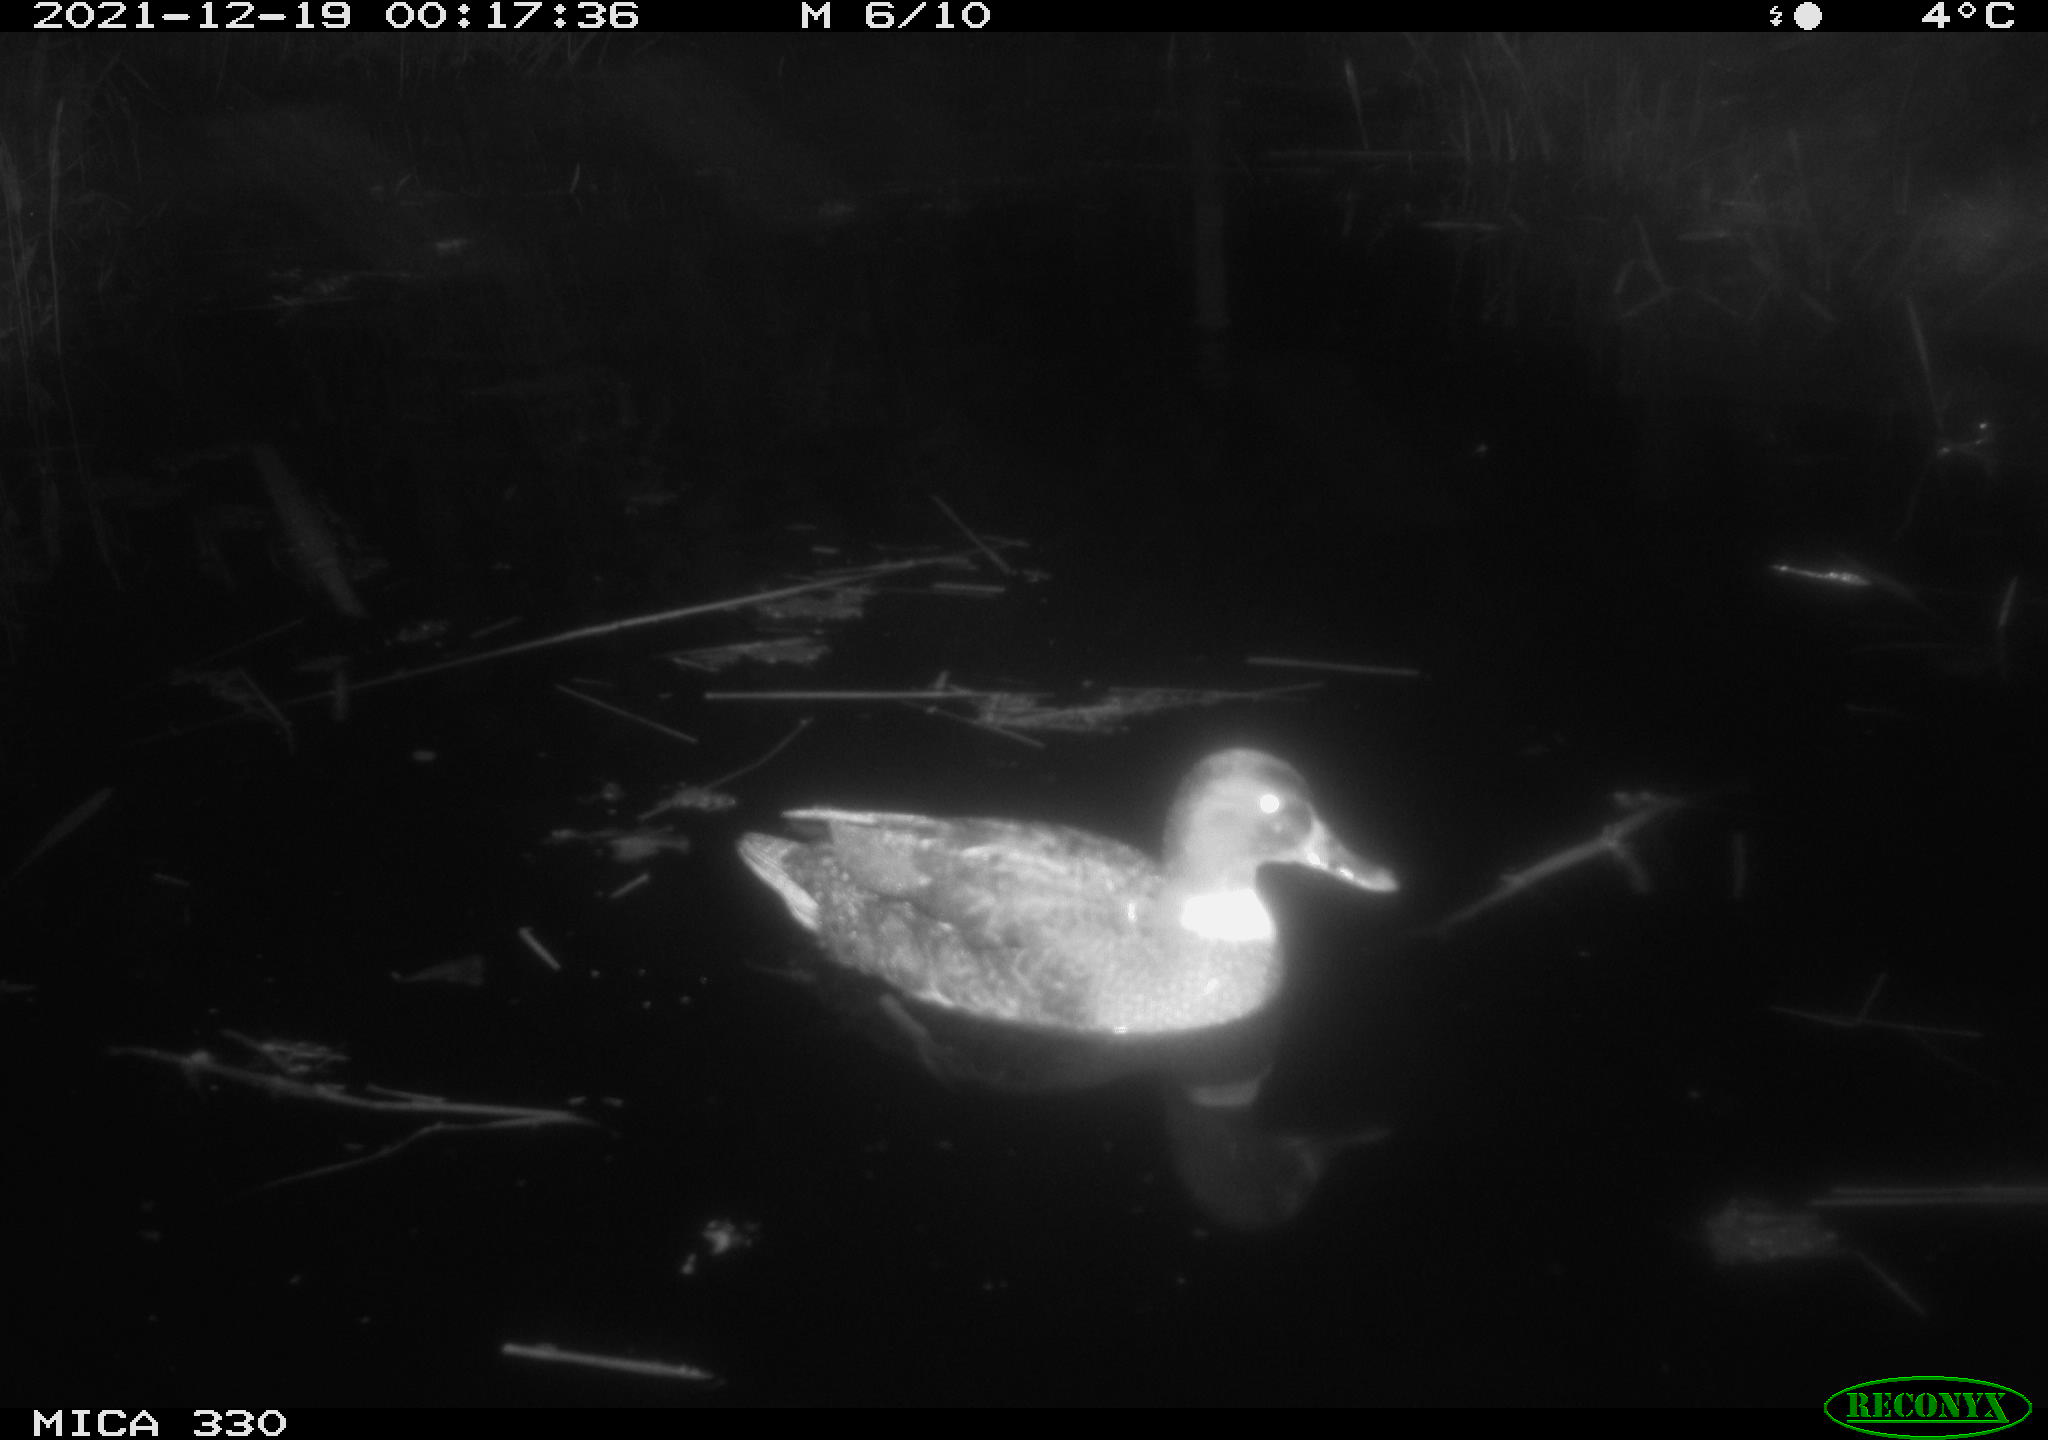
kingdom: Animalia
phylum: Chordata
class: Aves
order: Anseriformes
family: Anatidae
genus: Anas
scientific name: Anas platyrhynchos
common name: Mallard
